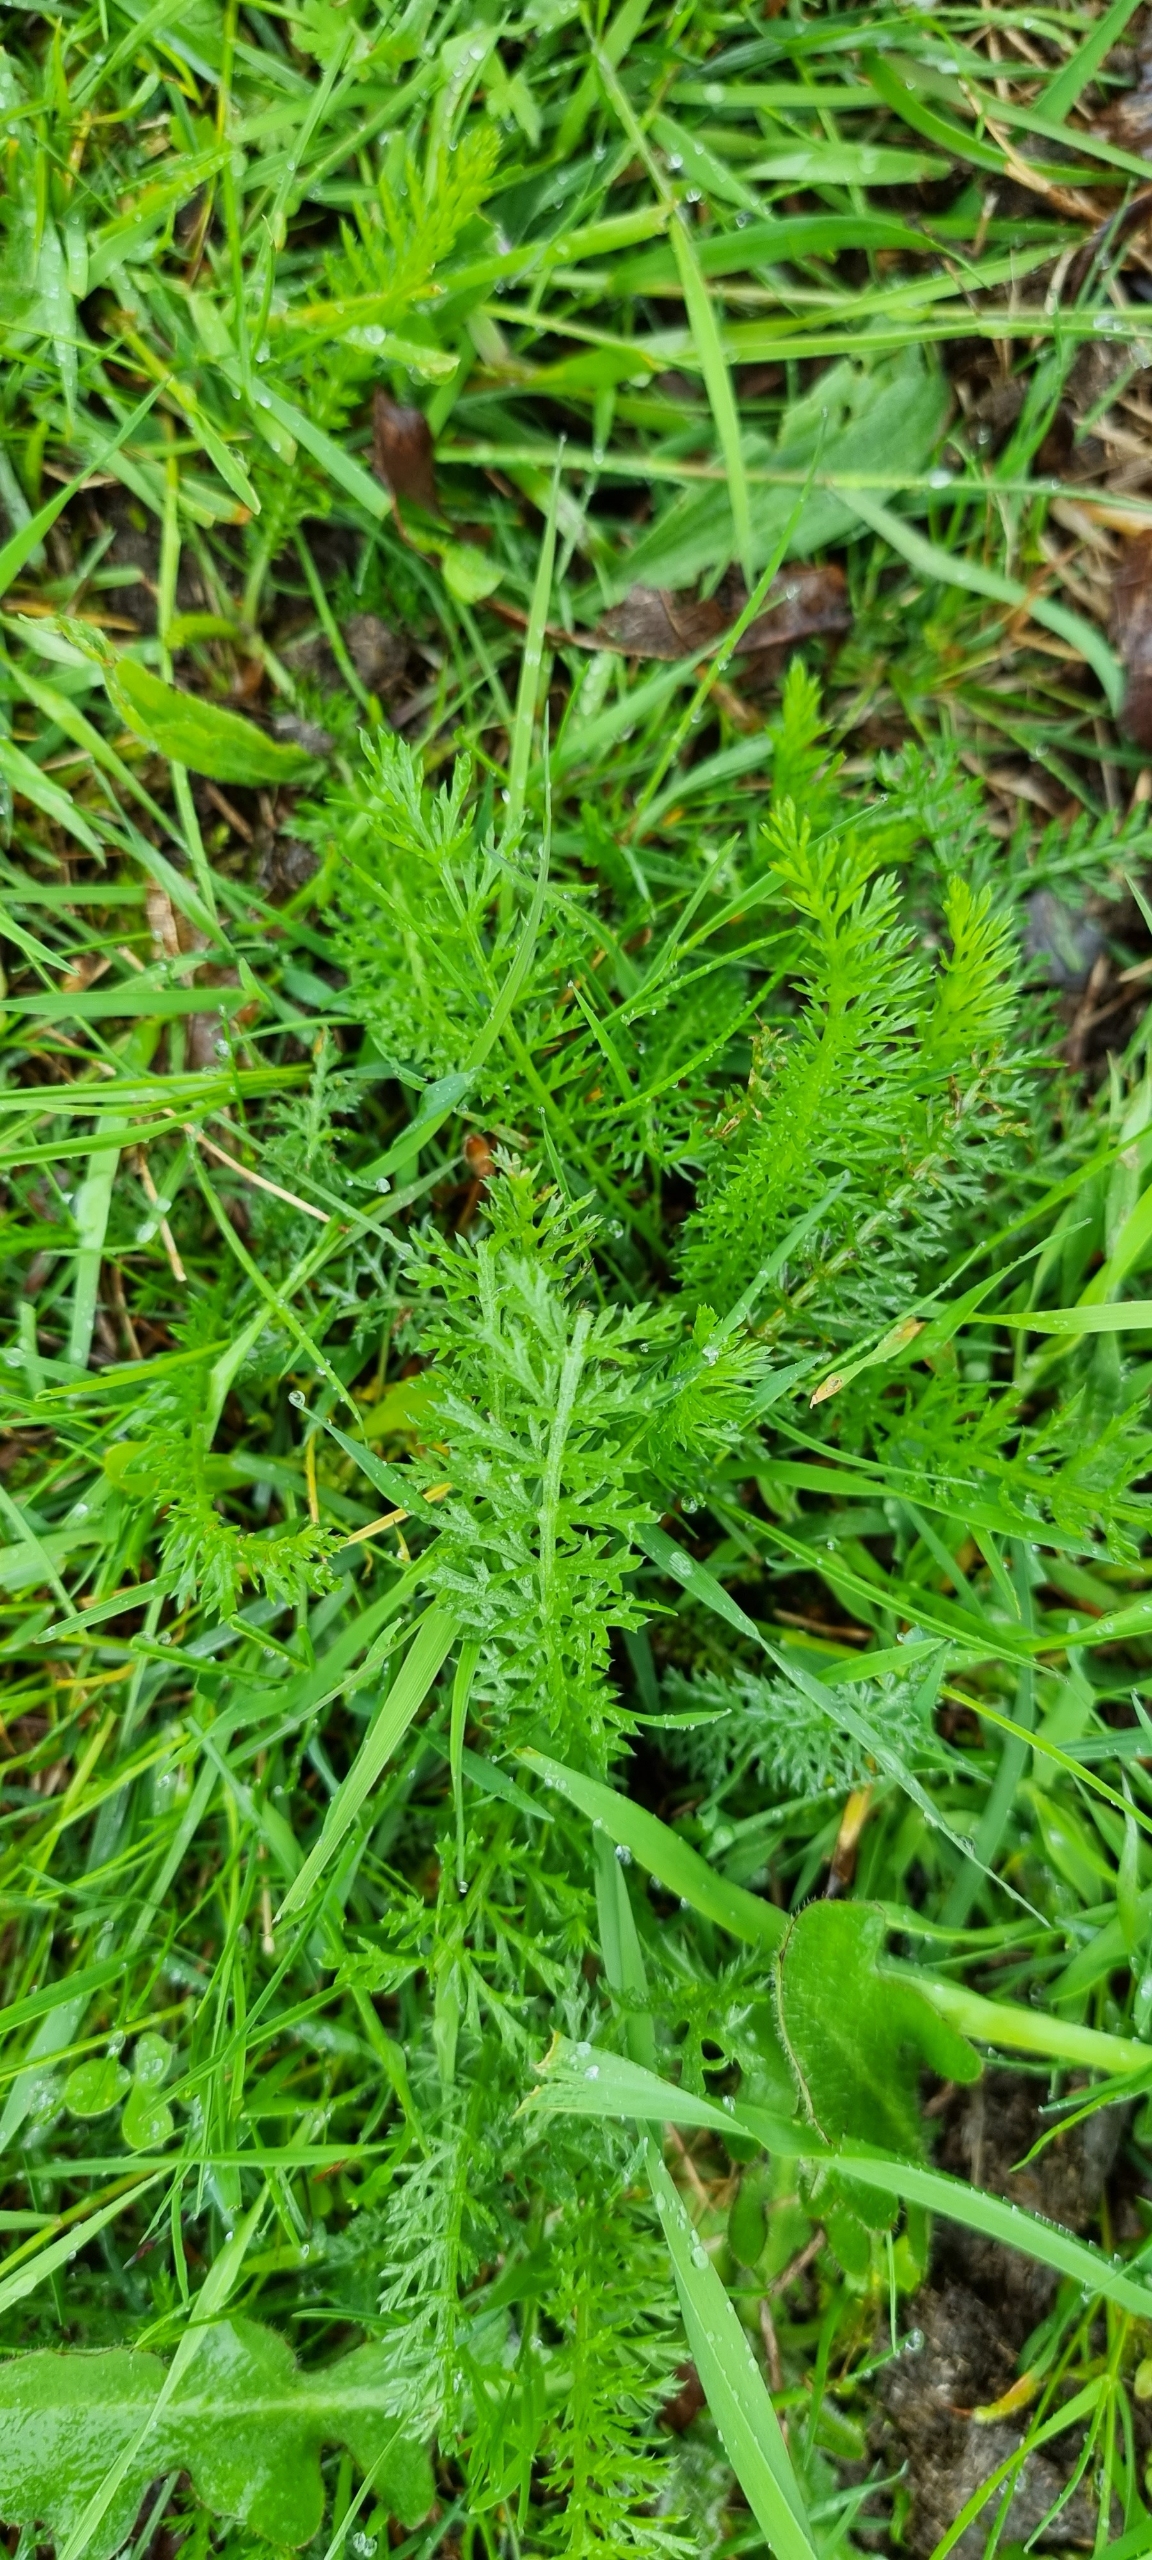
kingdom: Plantae
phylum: Tracheophyta
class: Magnoliopsida
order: Asterales
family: Asteraceae
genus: Achillea
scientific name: Achillea millefolium
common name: Almindelig røllike
